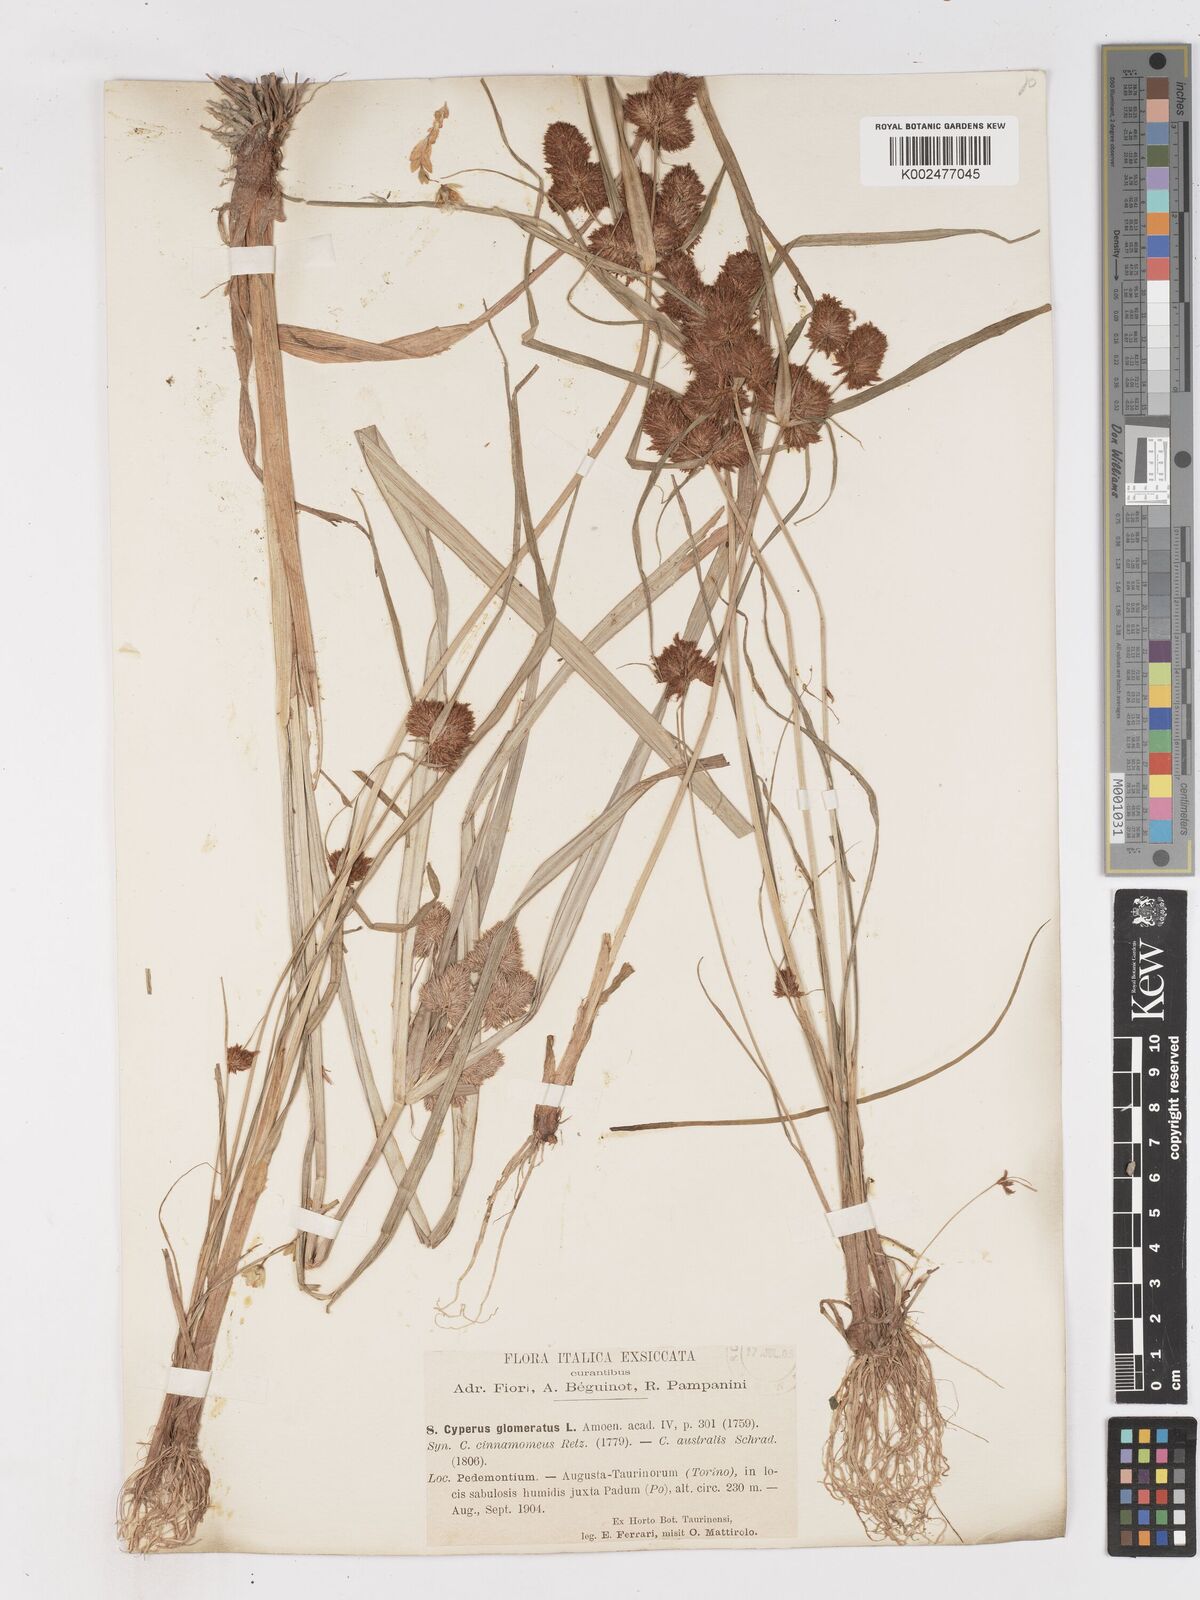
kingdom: Plantae
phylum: Tracheophyta
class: Liliopsida
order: Poales
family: Cyperaceae
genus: Cyperus
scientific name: Cyperus glomeratus
